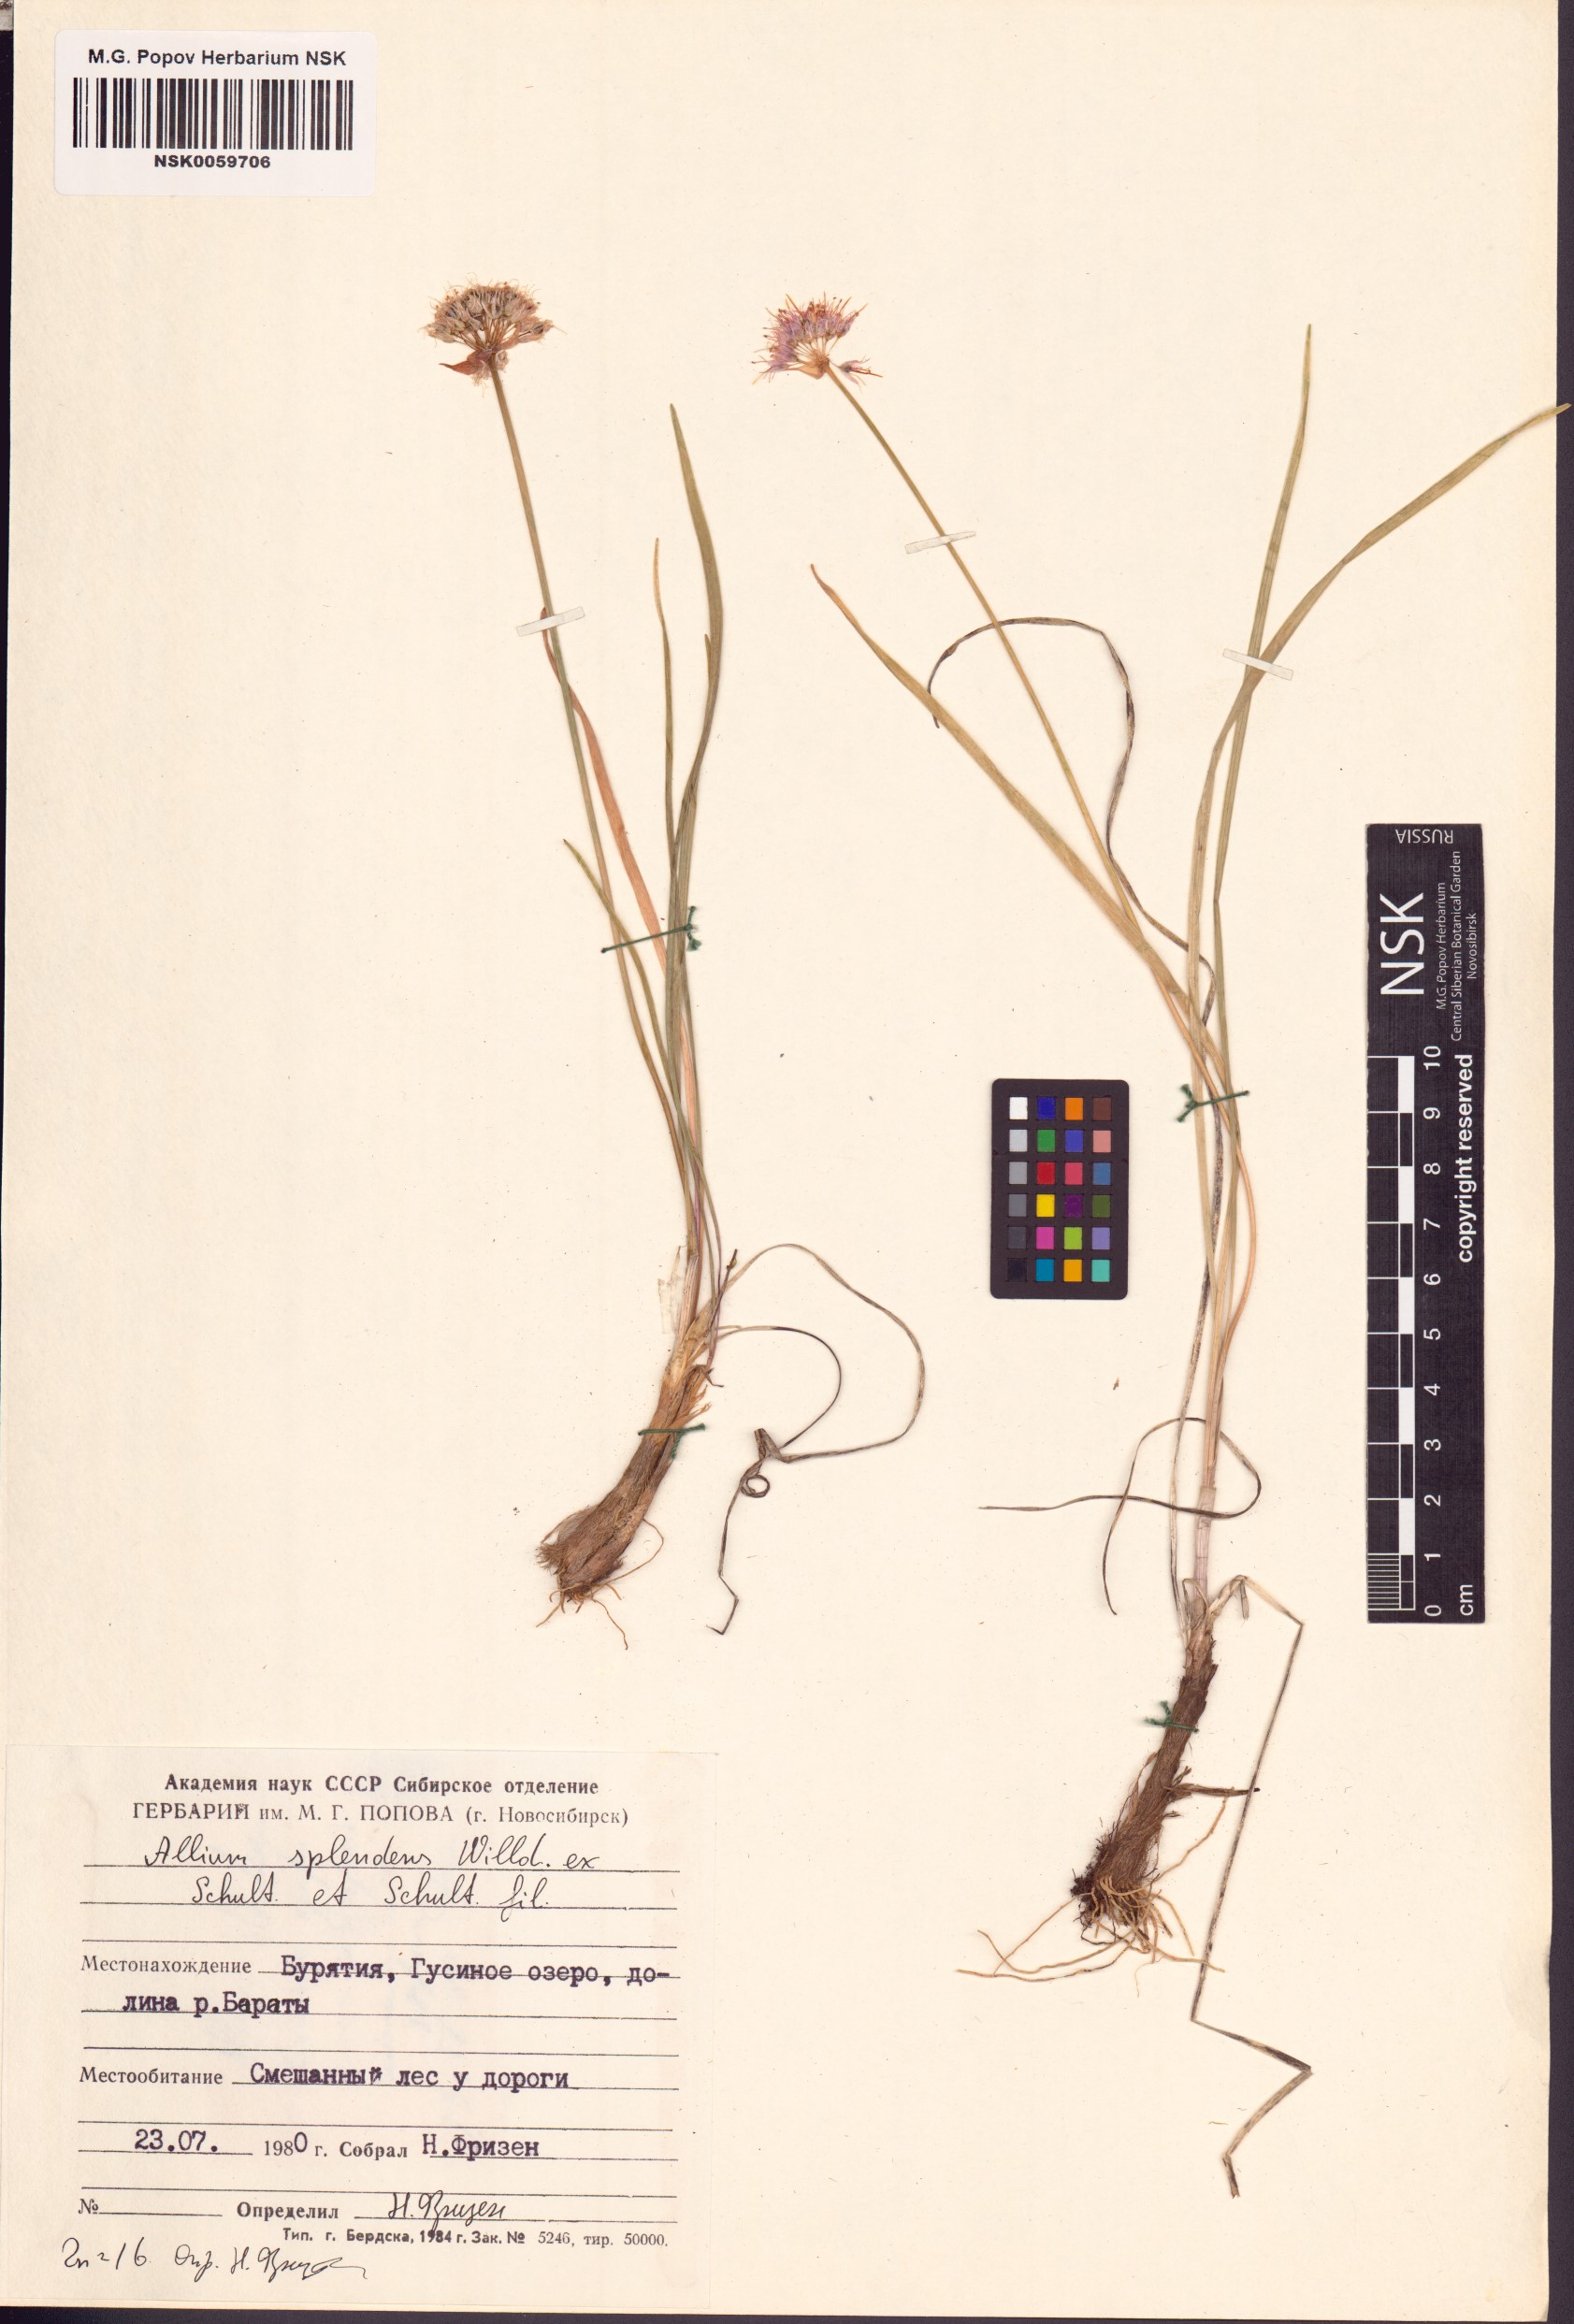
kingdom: Plantae
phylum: Tracheophyta
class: Liliopsida
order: Asparagales
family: Amaryllidaceae
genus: Allium
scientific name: Allium splendens
